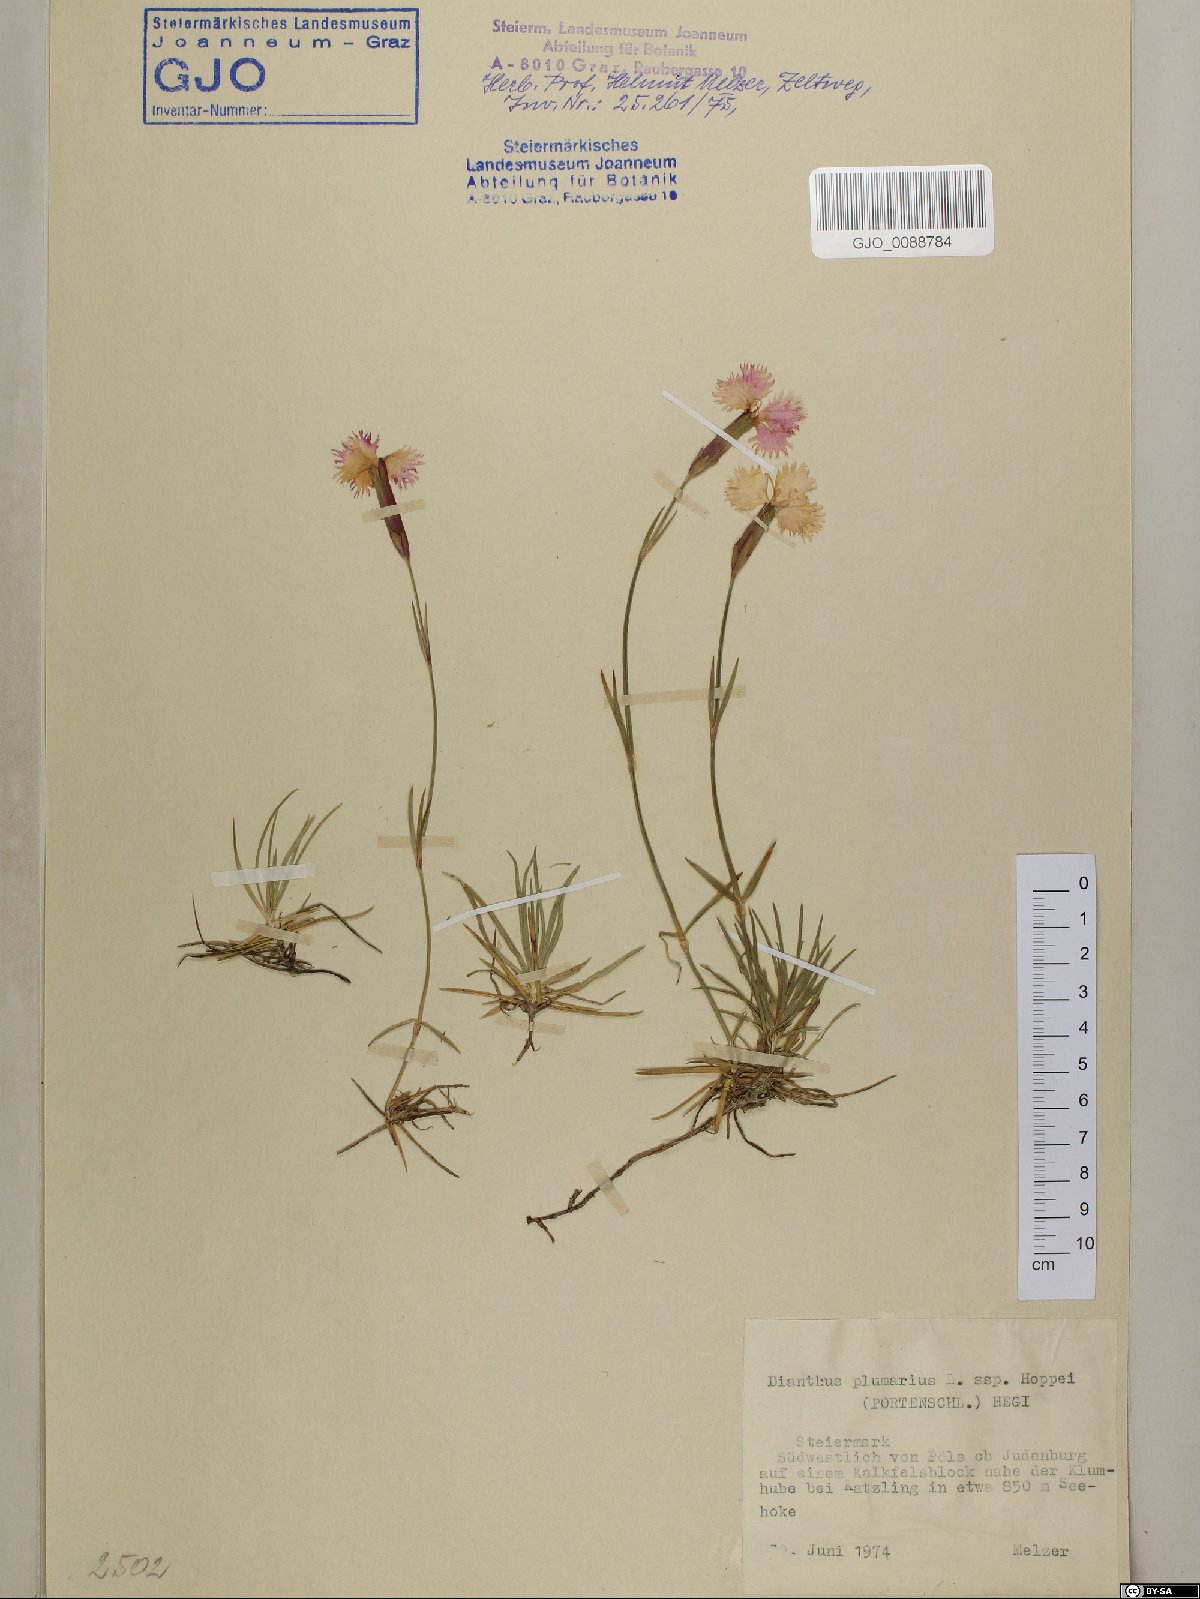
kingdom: Plantae
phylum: Tracheophyta
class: Magnoliopsida
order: Caryophyllales
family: Caryophyllaceae
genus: Dianthus
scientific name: Dianthus plumarius
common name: Pink
